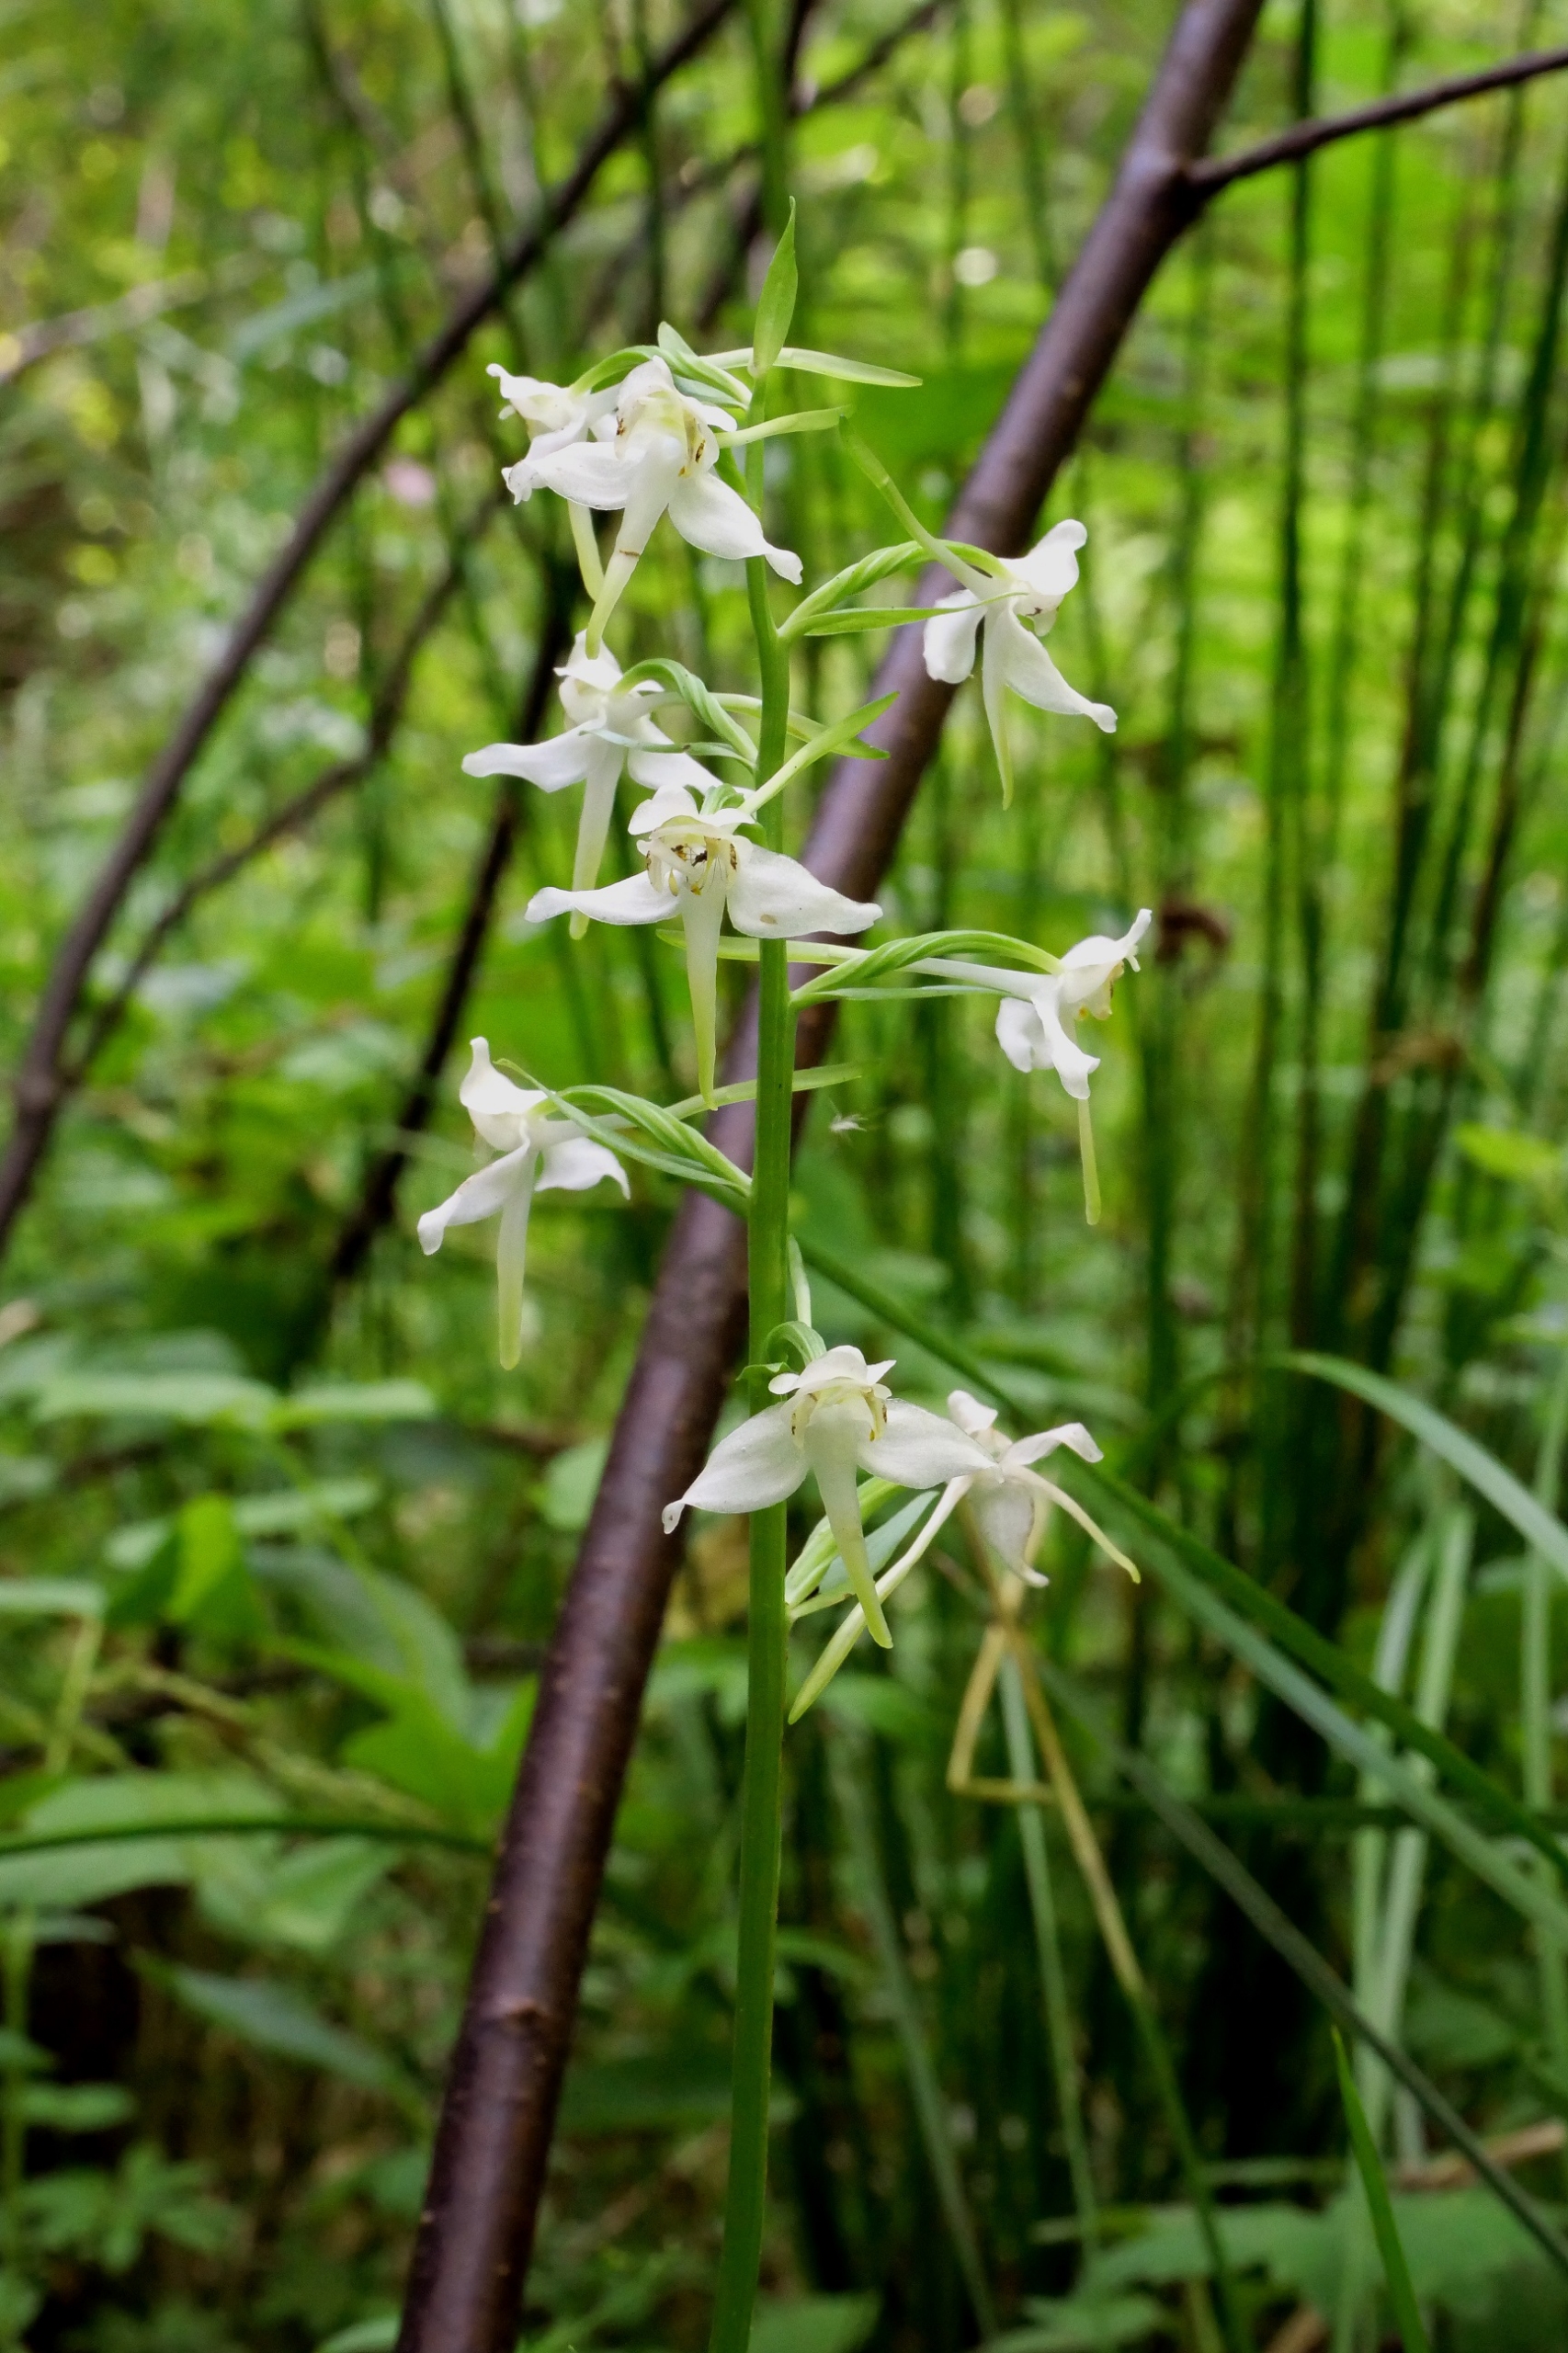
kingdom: Plantae
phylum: Tracheophyta
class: Liliopsida
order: Asparagales
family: Orchidaceae
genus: Platanthera
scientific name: Platanthera chlorantha
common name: Skov-gøgelilje
